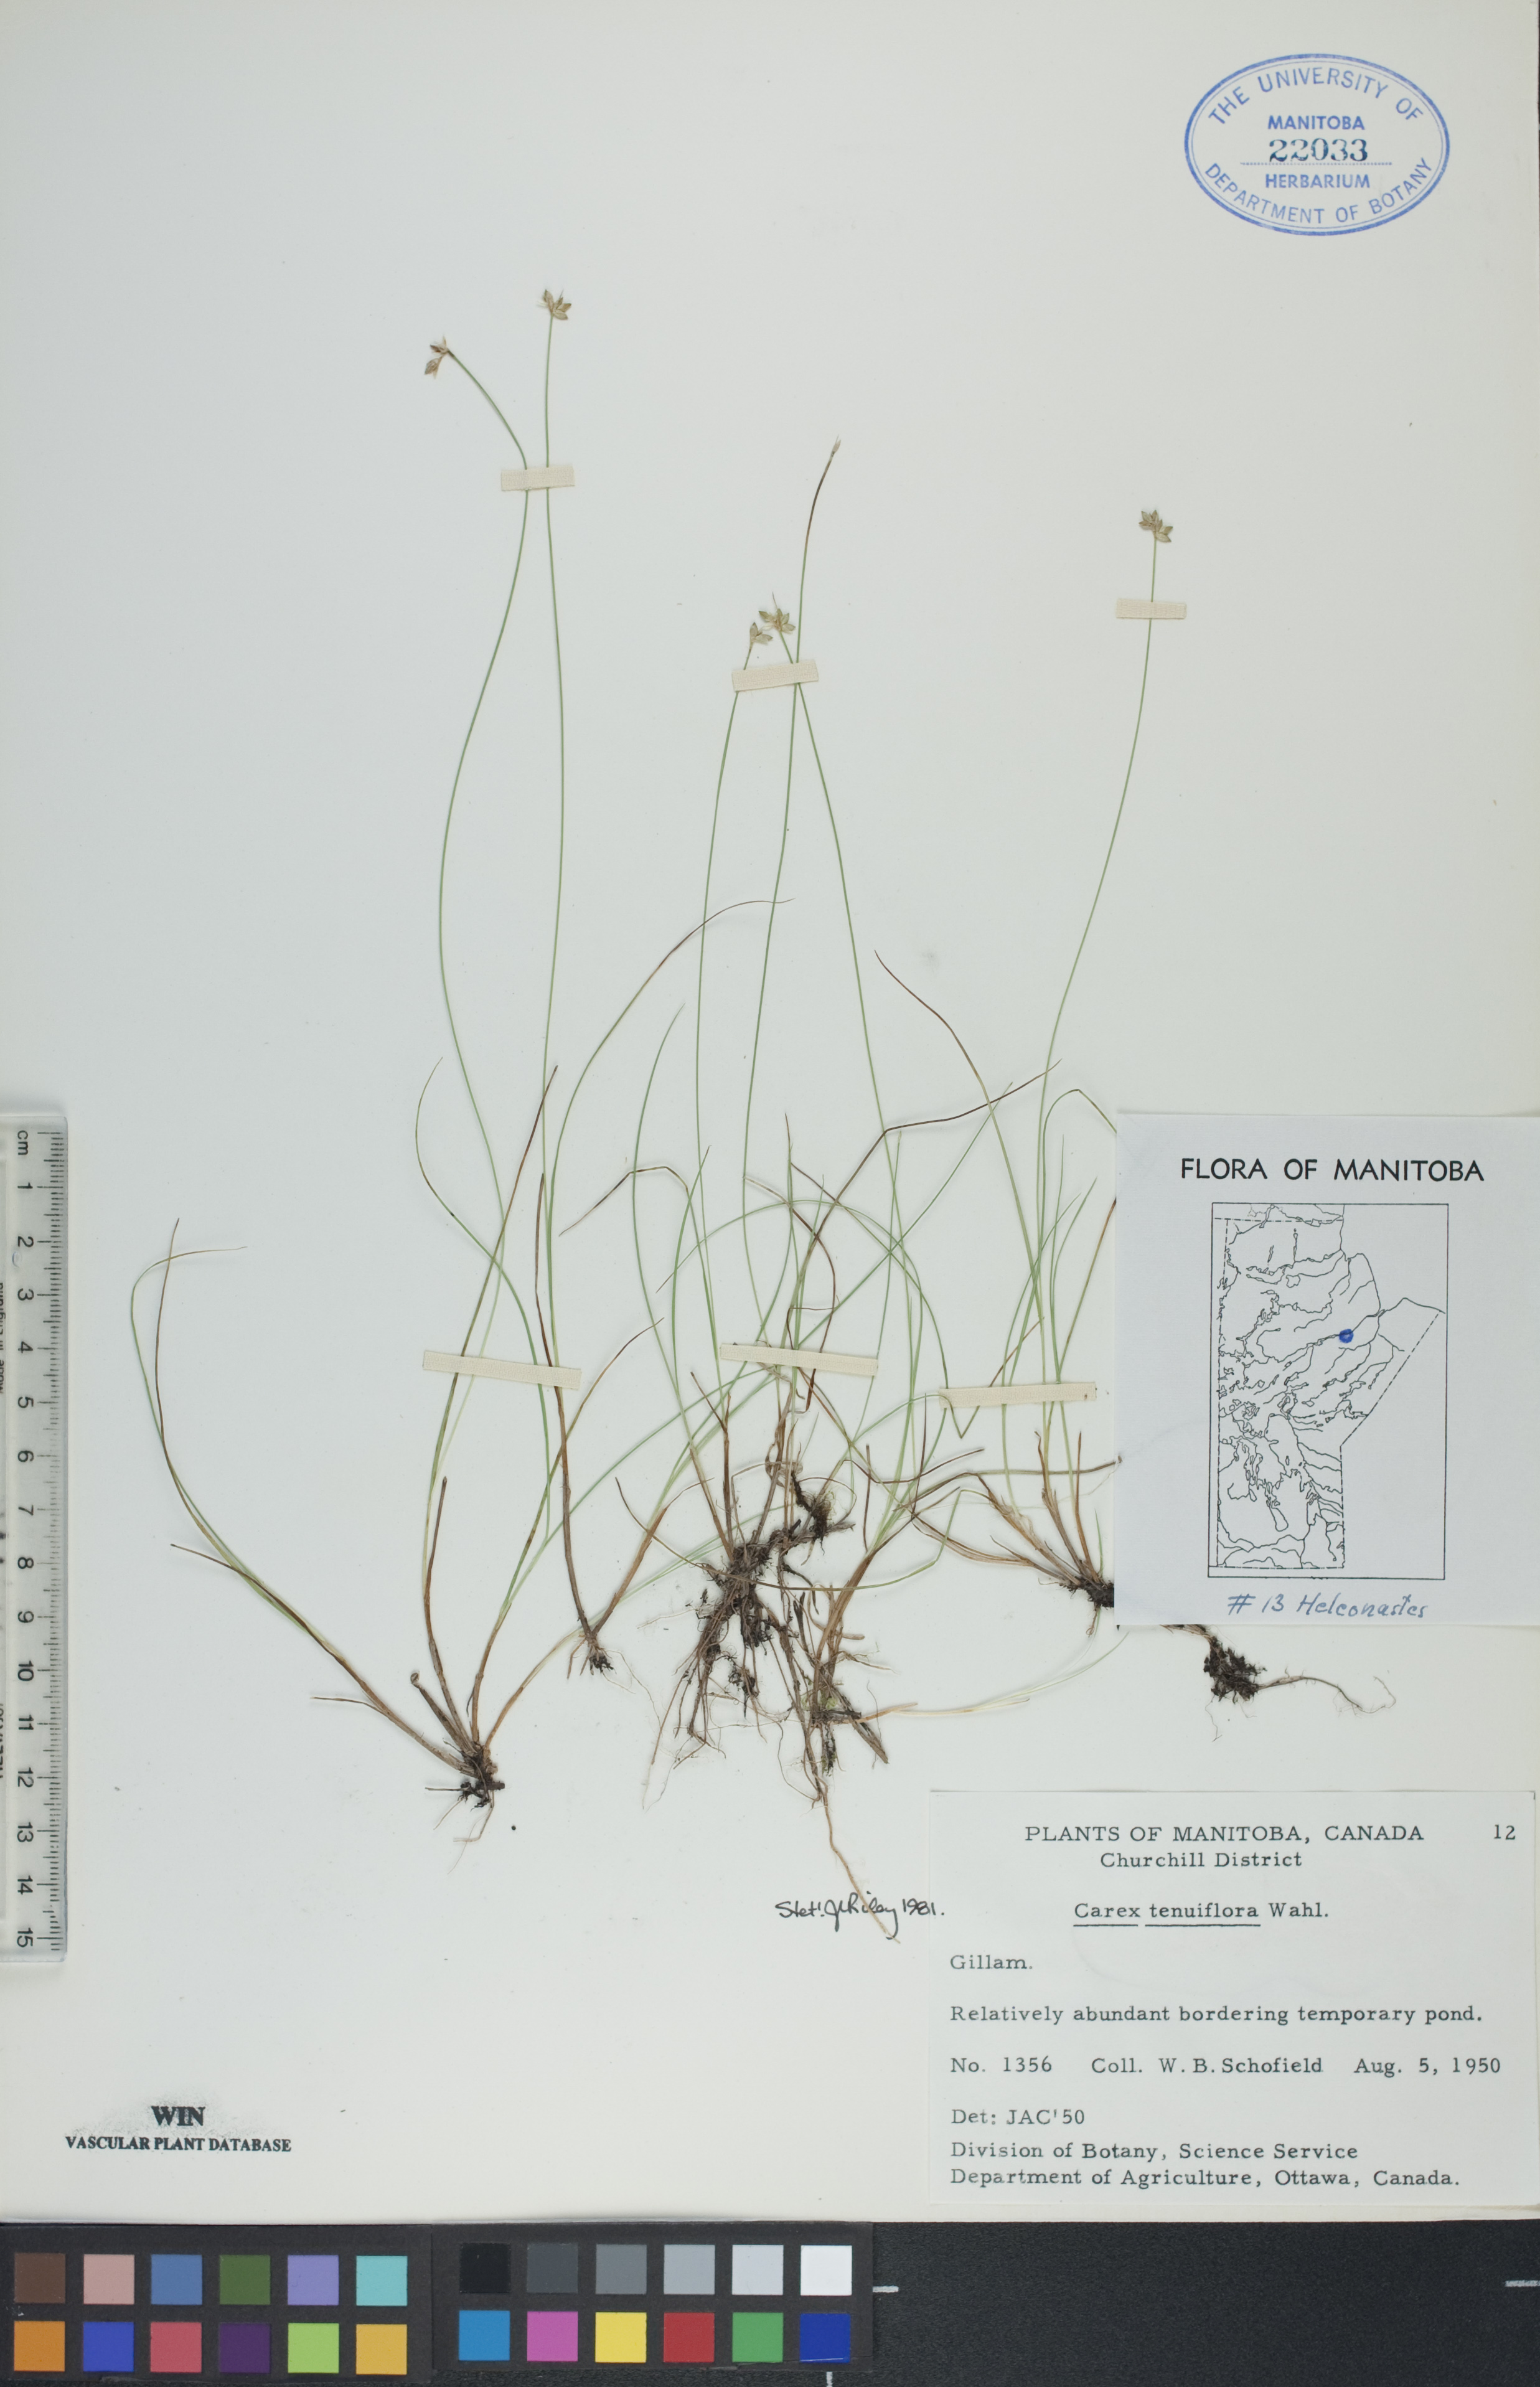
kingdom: Plantae
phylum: Tracheophyta
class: Liliopsida
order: Poales
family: Cyperaceae
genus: Carex
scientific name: Carex tenuiflora
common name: Sparse-flowered sedge
